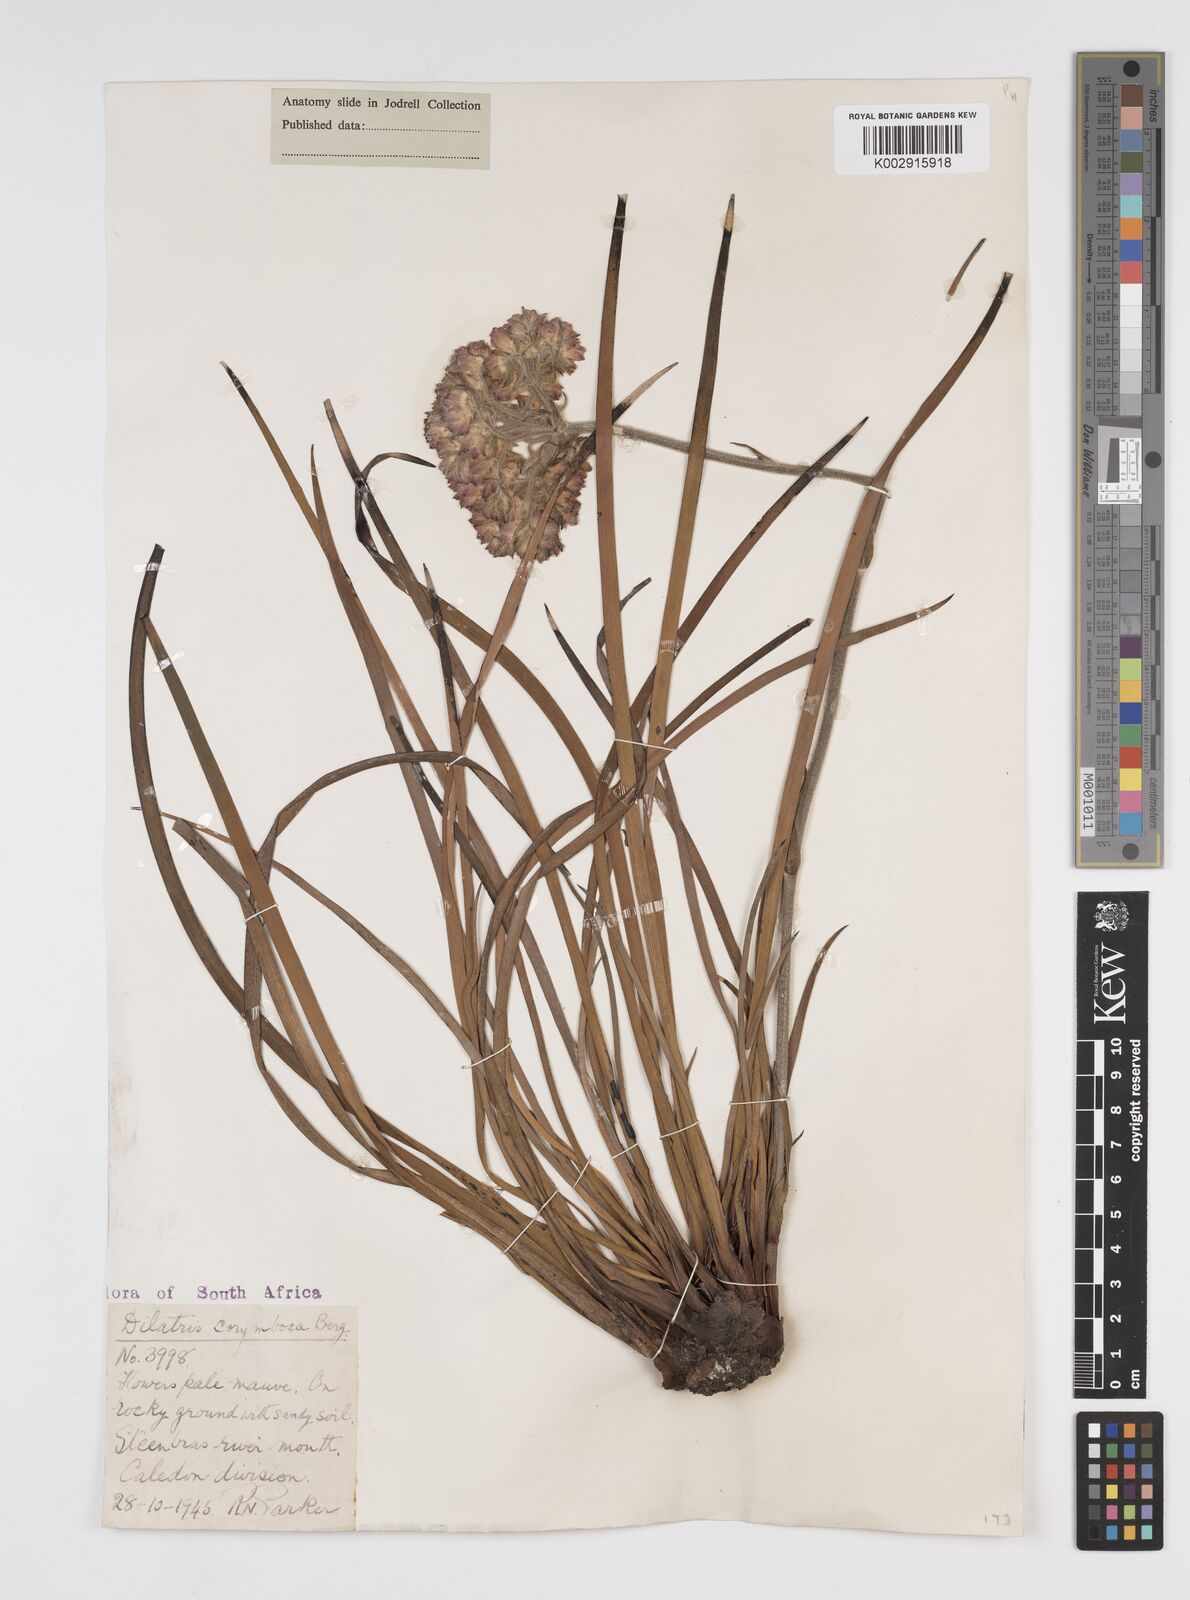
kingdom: Plantae
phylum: Tracheophyta
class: Liliopsida
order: Commelinales
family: Haemodoraceae
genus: Dilatris
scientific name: Dilatris corymbosa
